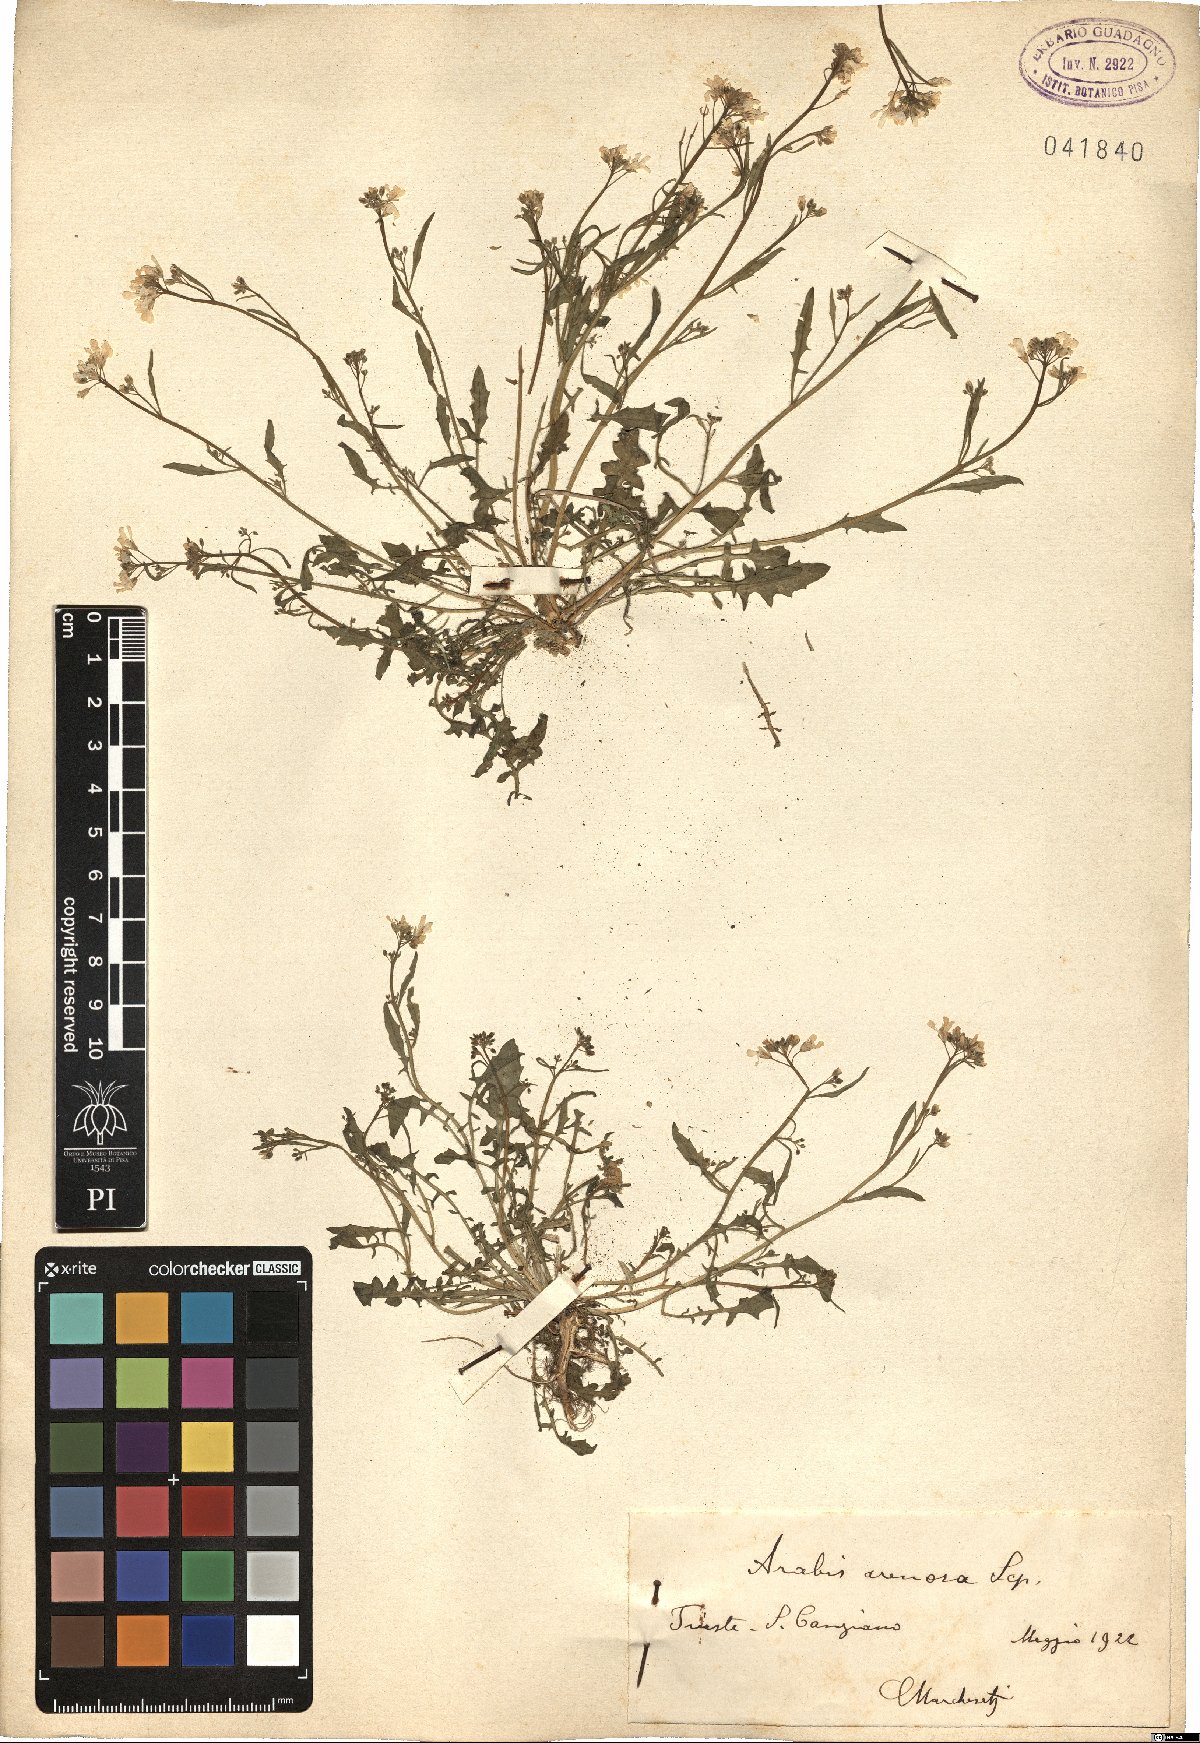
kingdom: Plantae
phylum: Tracheophyta
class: Magnoliopsida
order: Brassicales
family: Brassicaceae
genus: Arabidopsis
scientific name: Arabidopsis arenosa
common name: Sand rock-cress
